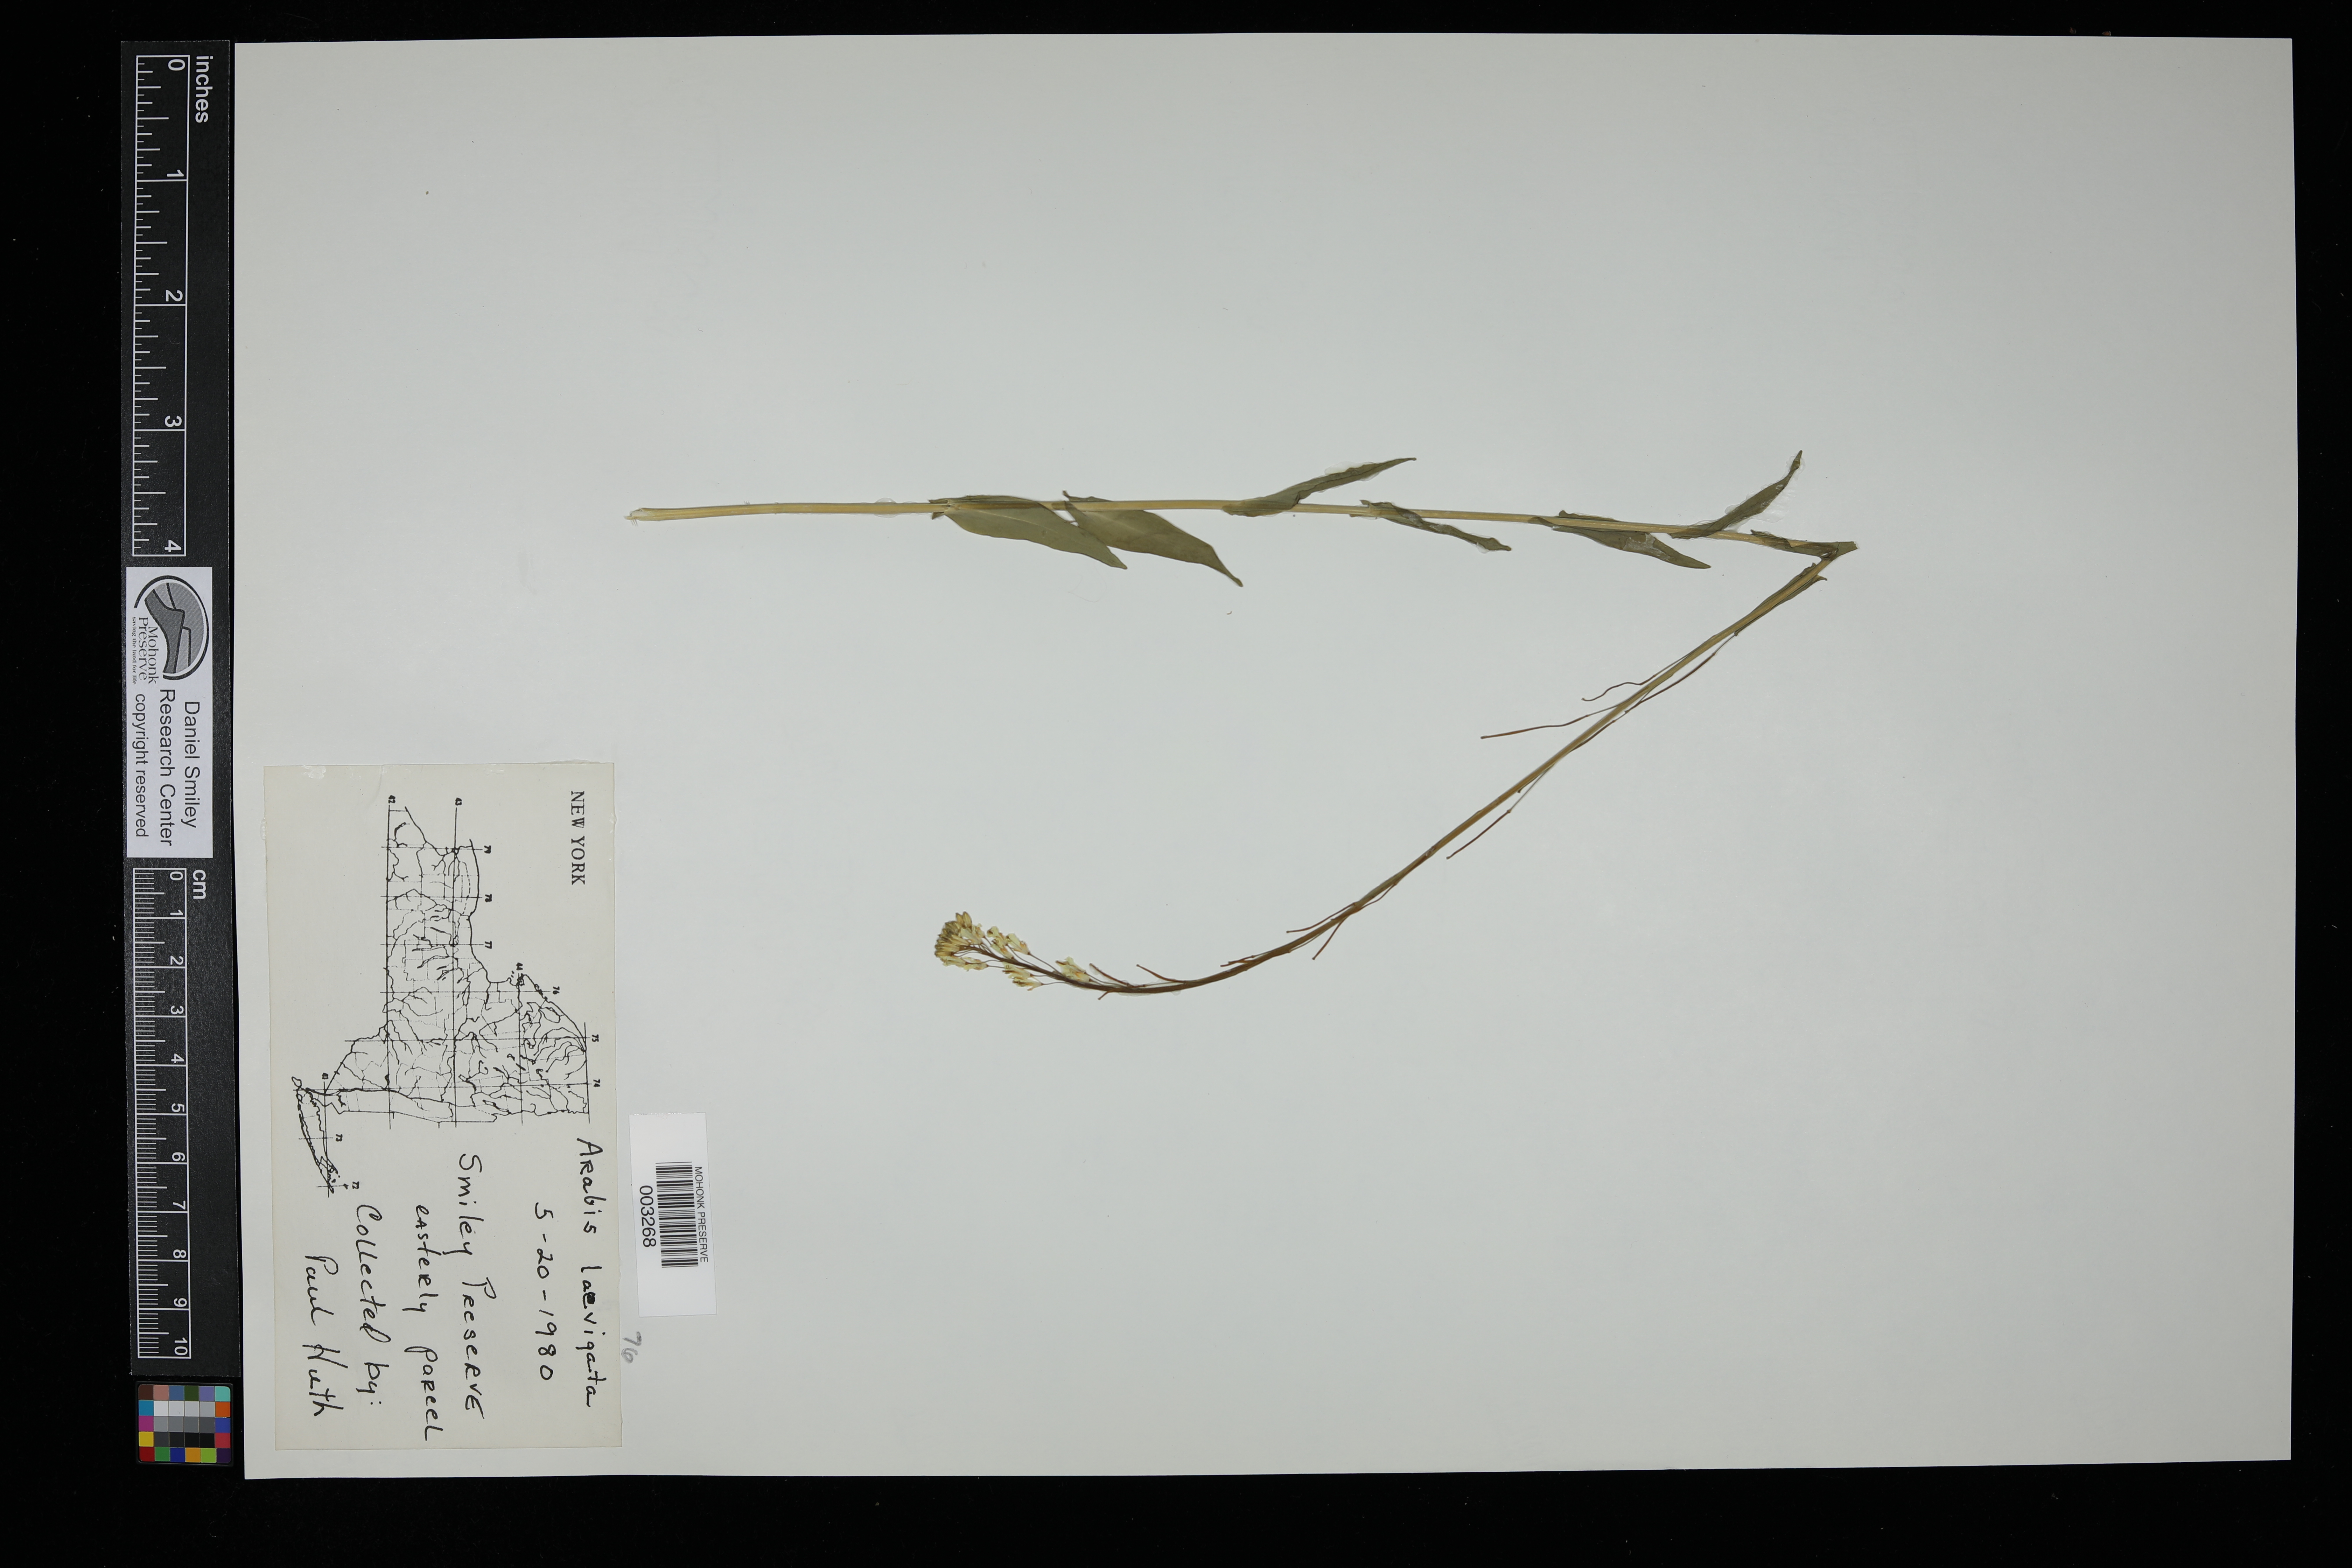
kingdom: Plantae
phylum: Tracheophyta
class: Magnoliopsida
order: Brassicales
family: Brassicaceae
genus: Boechera
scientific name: Boechera stricta
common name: Canadian rockcress
